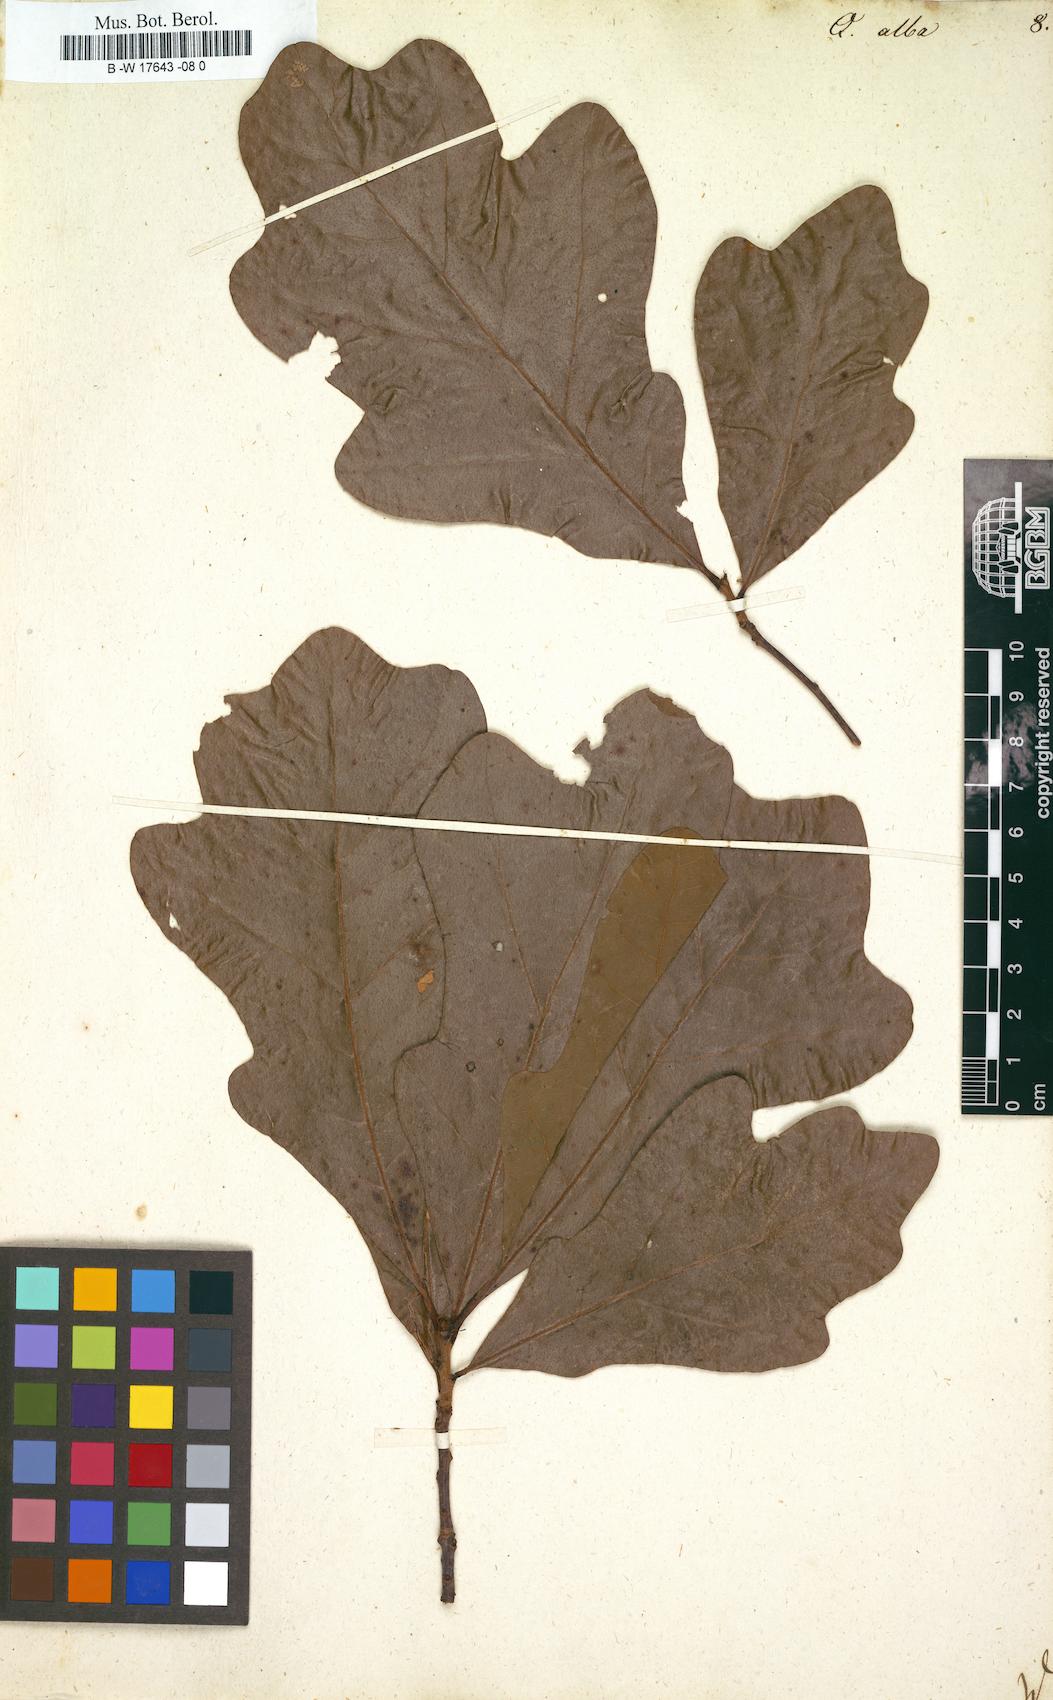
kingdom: Plantae
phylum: Tracheophyta
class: Magnoliopsida
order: Fagales
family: Fagaceae
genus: Quercus
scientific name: Quercus alba
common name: White oak
